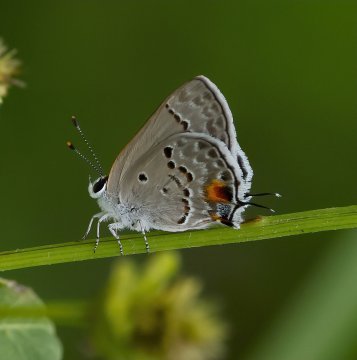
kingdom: Animalia
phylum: Arthropoda
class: Insecta
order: Lepidoptera
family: Lycaenidae
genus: Callicista
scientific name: Callicista columella
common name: Mallow Scrub-Hairstreak
